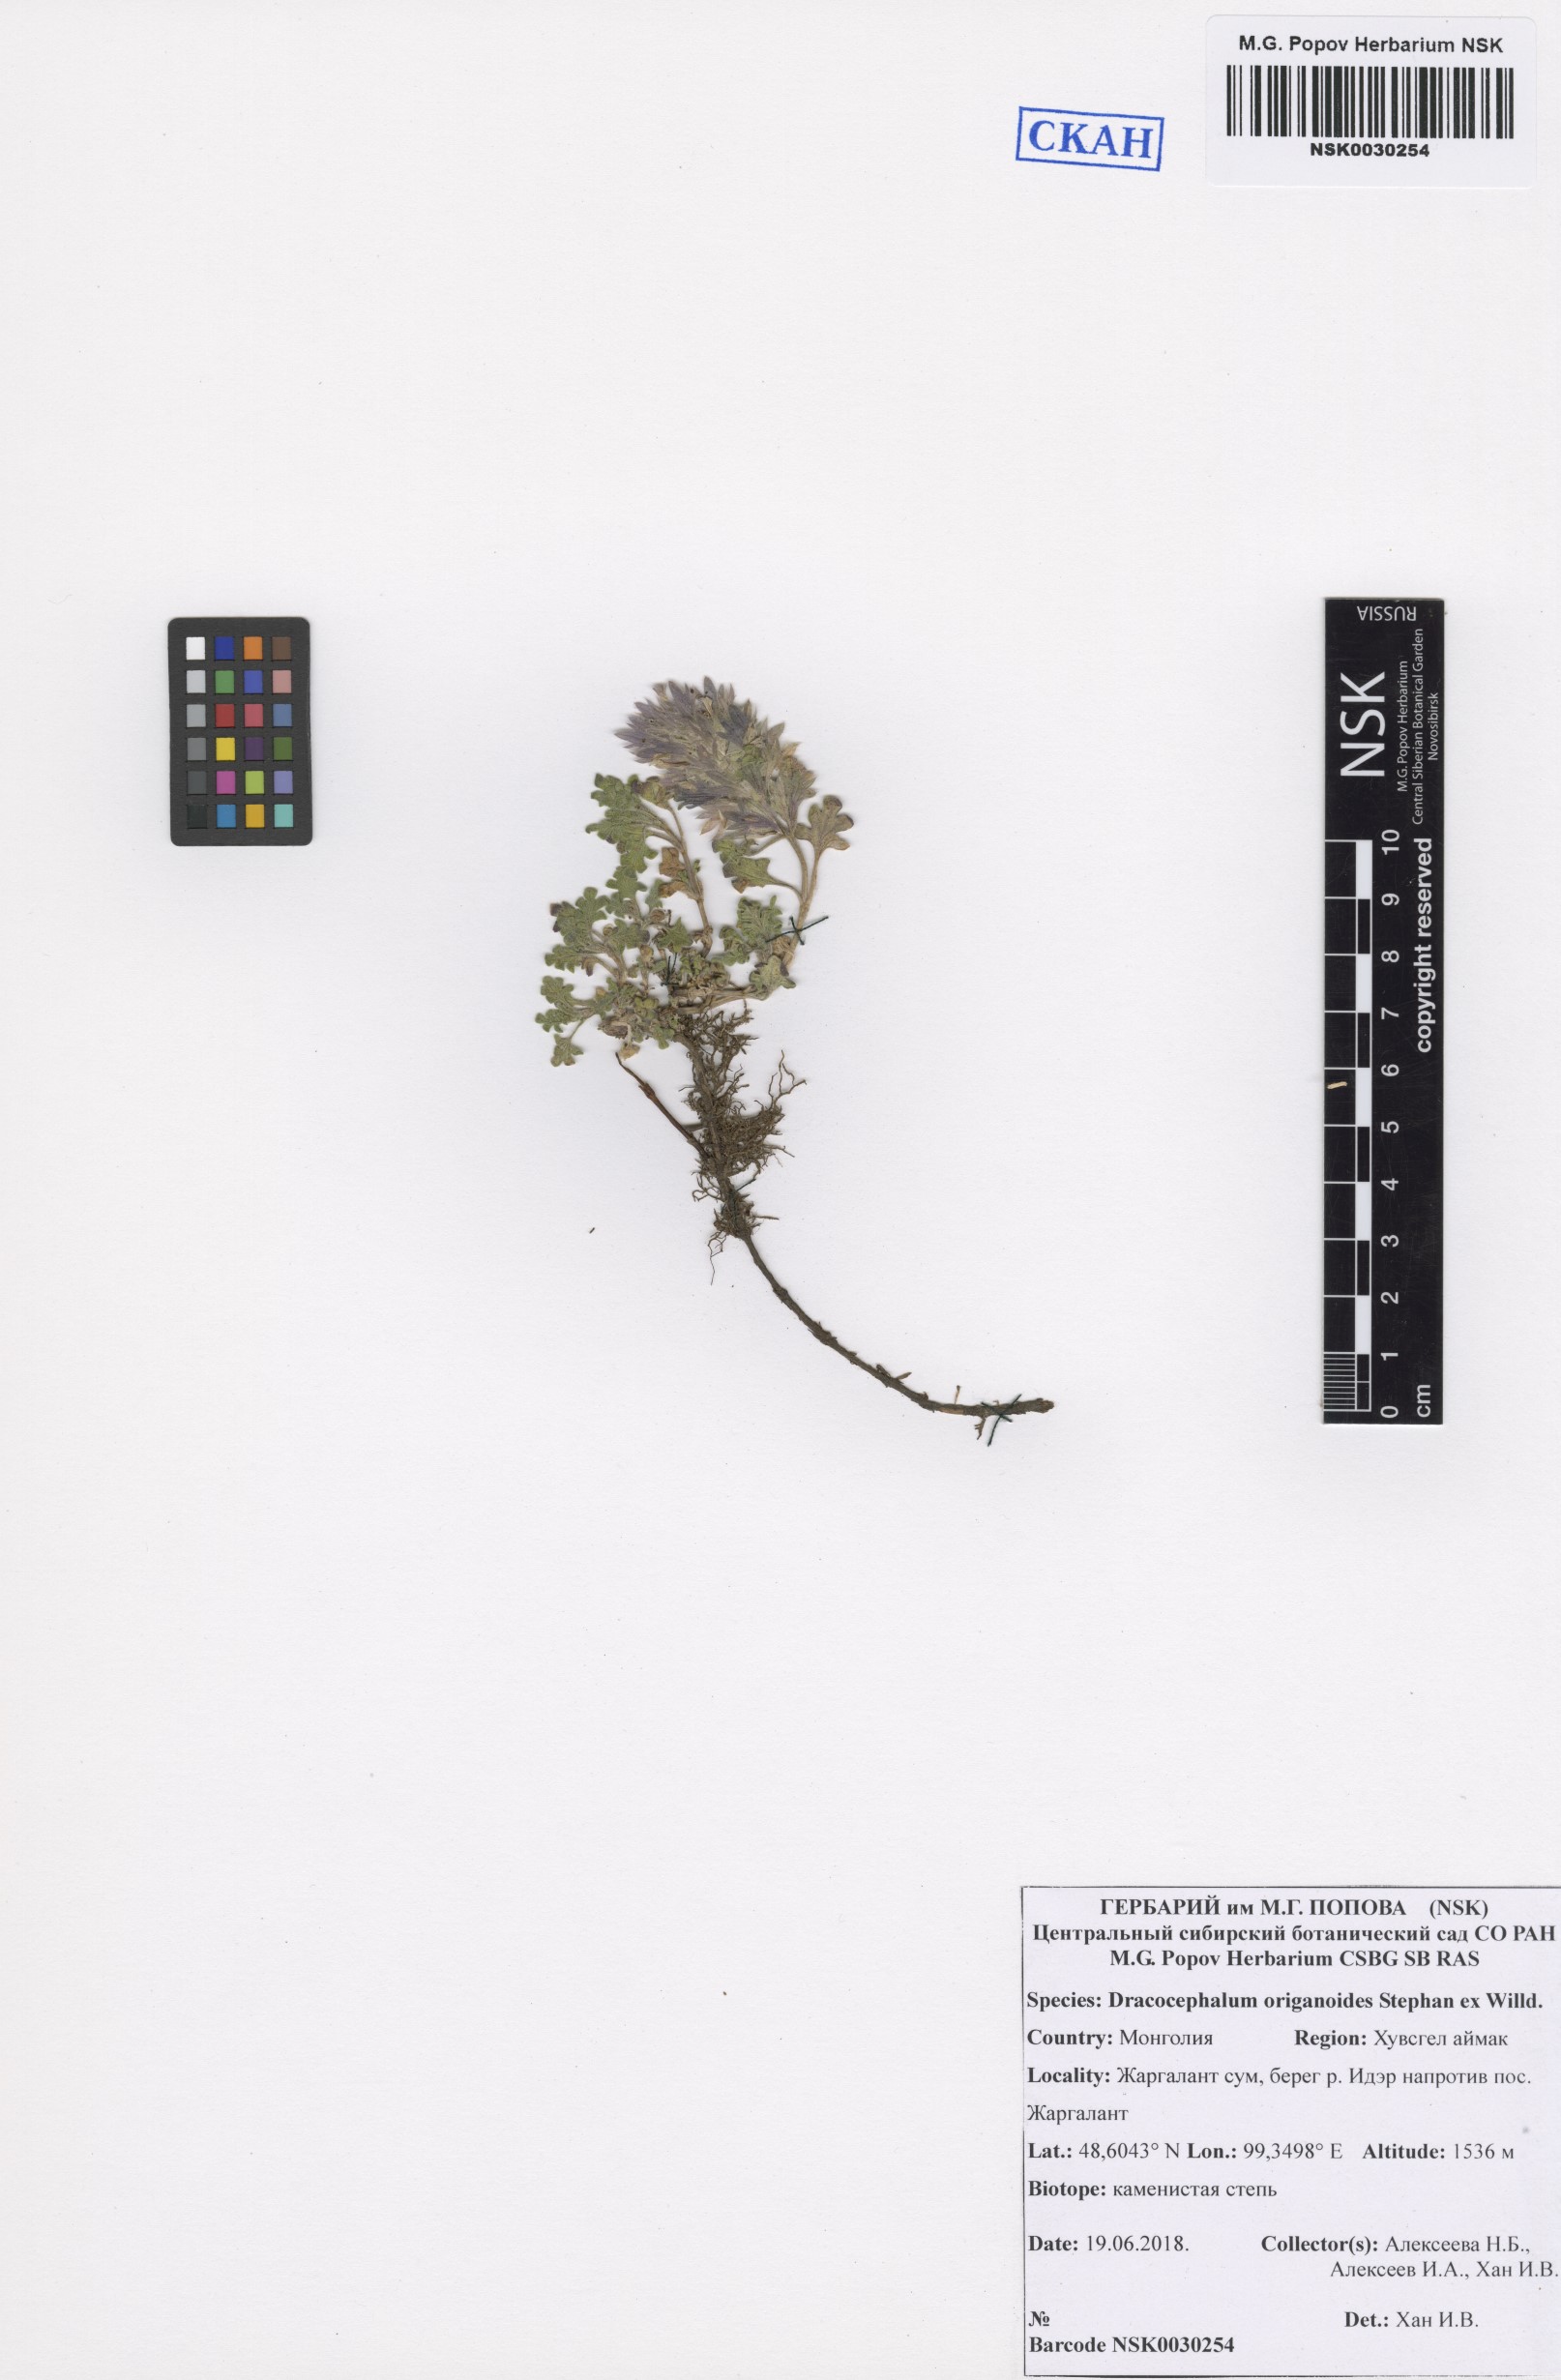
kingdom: Plantae
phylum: Tracheophyta
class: Magnoliopsida
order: Lamiales
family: Lamiaceae
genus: Dracocephalum
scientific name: Dracocephalum origanoides
